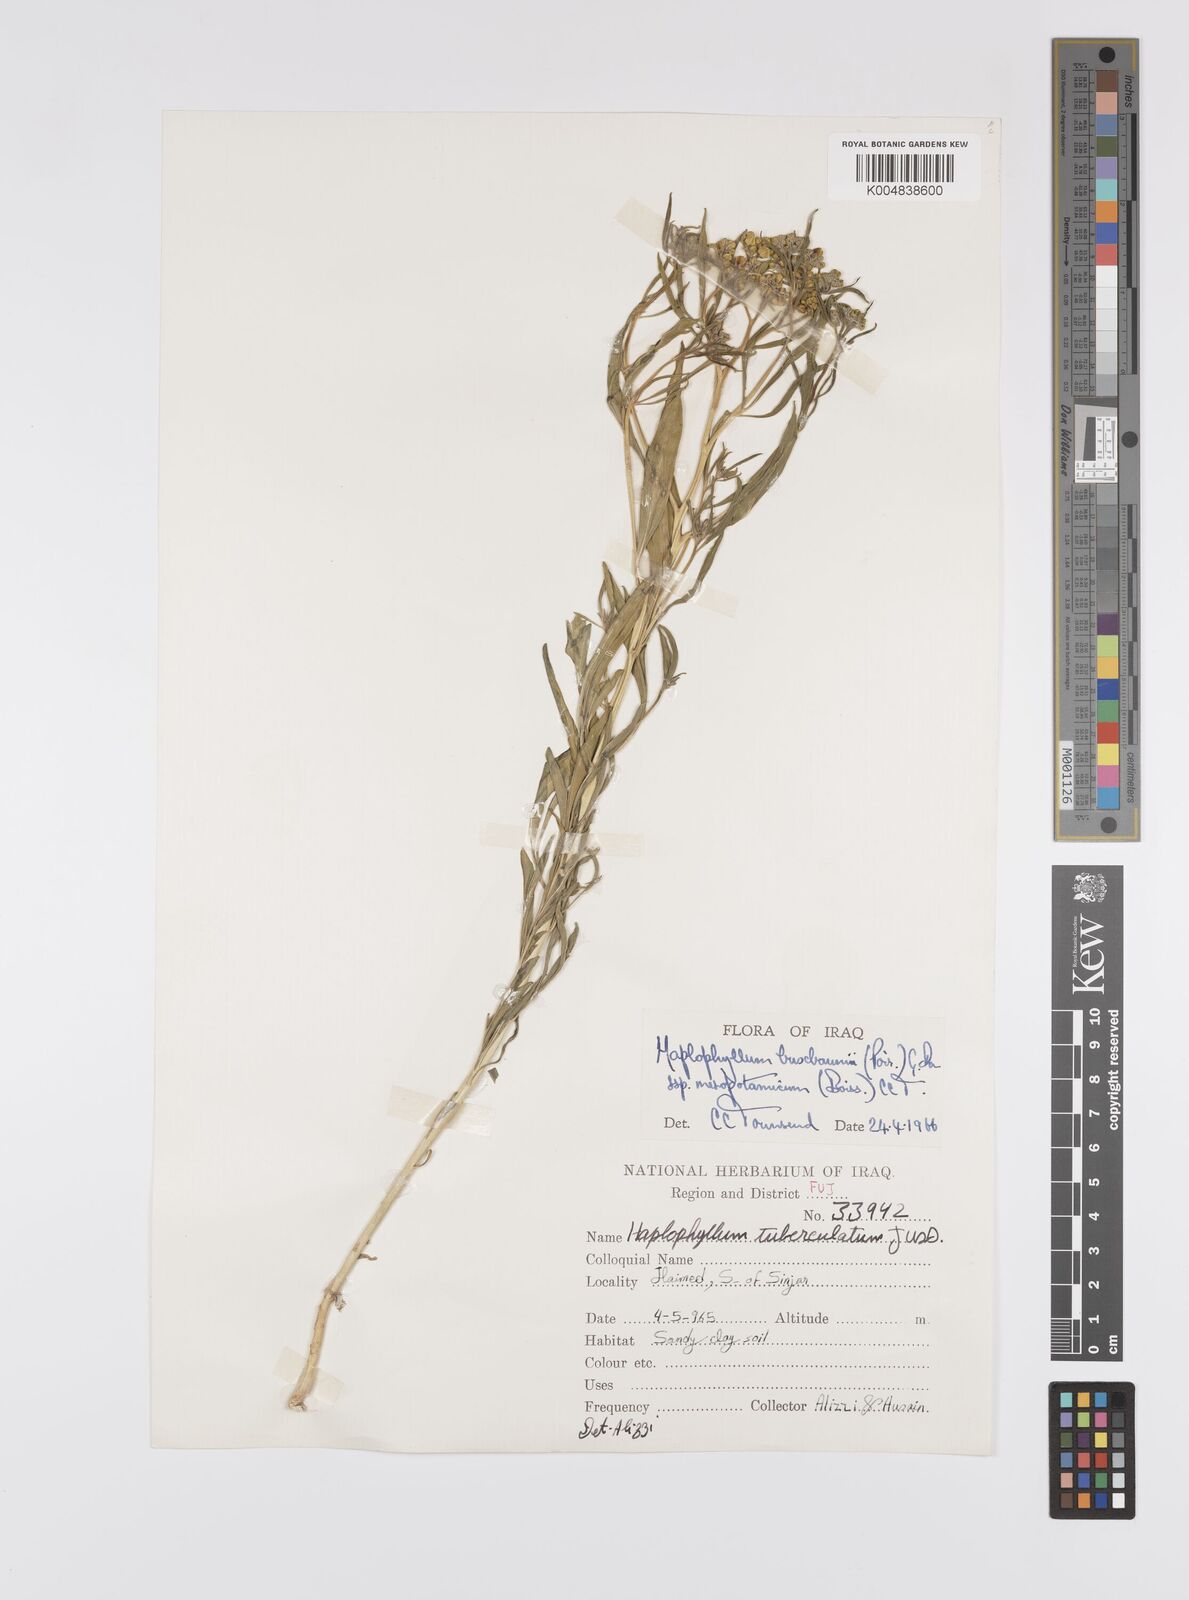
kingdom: Plantae
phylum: Tracheophyta
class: Magnoliopsida
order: Sapindales
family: Rutaceae
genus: Haplophyllum
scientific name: Haplophyllum buxbaumii
